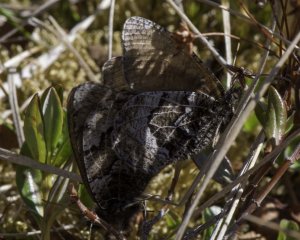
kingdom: Animalia
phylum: Arthropoda
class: Insecta
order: Lepidoptera
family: Nymphalidae
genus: Oeneis
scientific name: Oeneis bore
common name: White-veined Arctic
